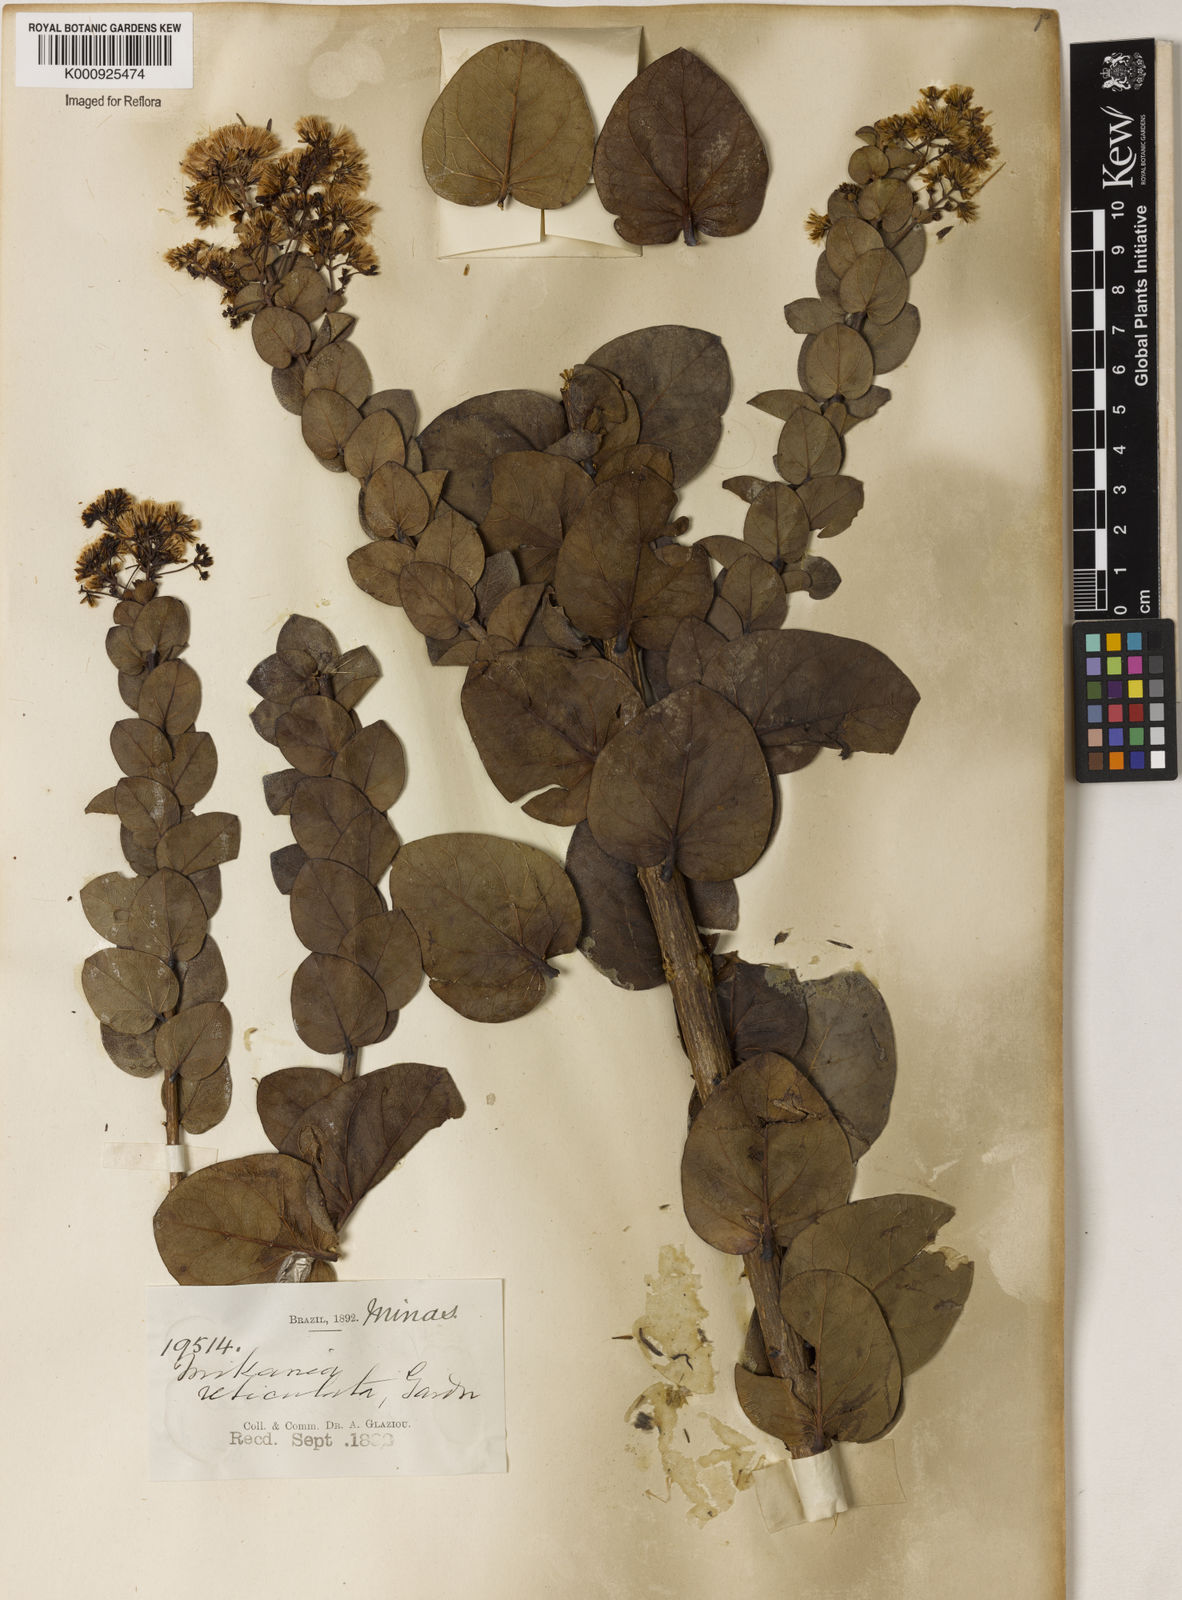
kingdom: Plantae
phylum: Tracheophyta
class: Magnoliopsida
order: Asterales
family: Asteraceae
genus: Mikania
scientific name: Mikania
